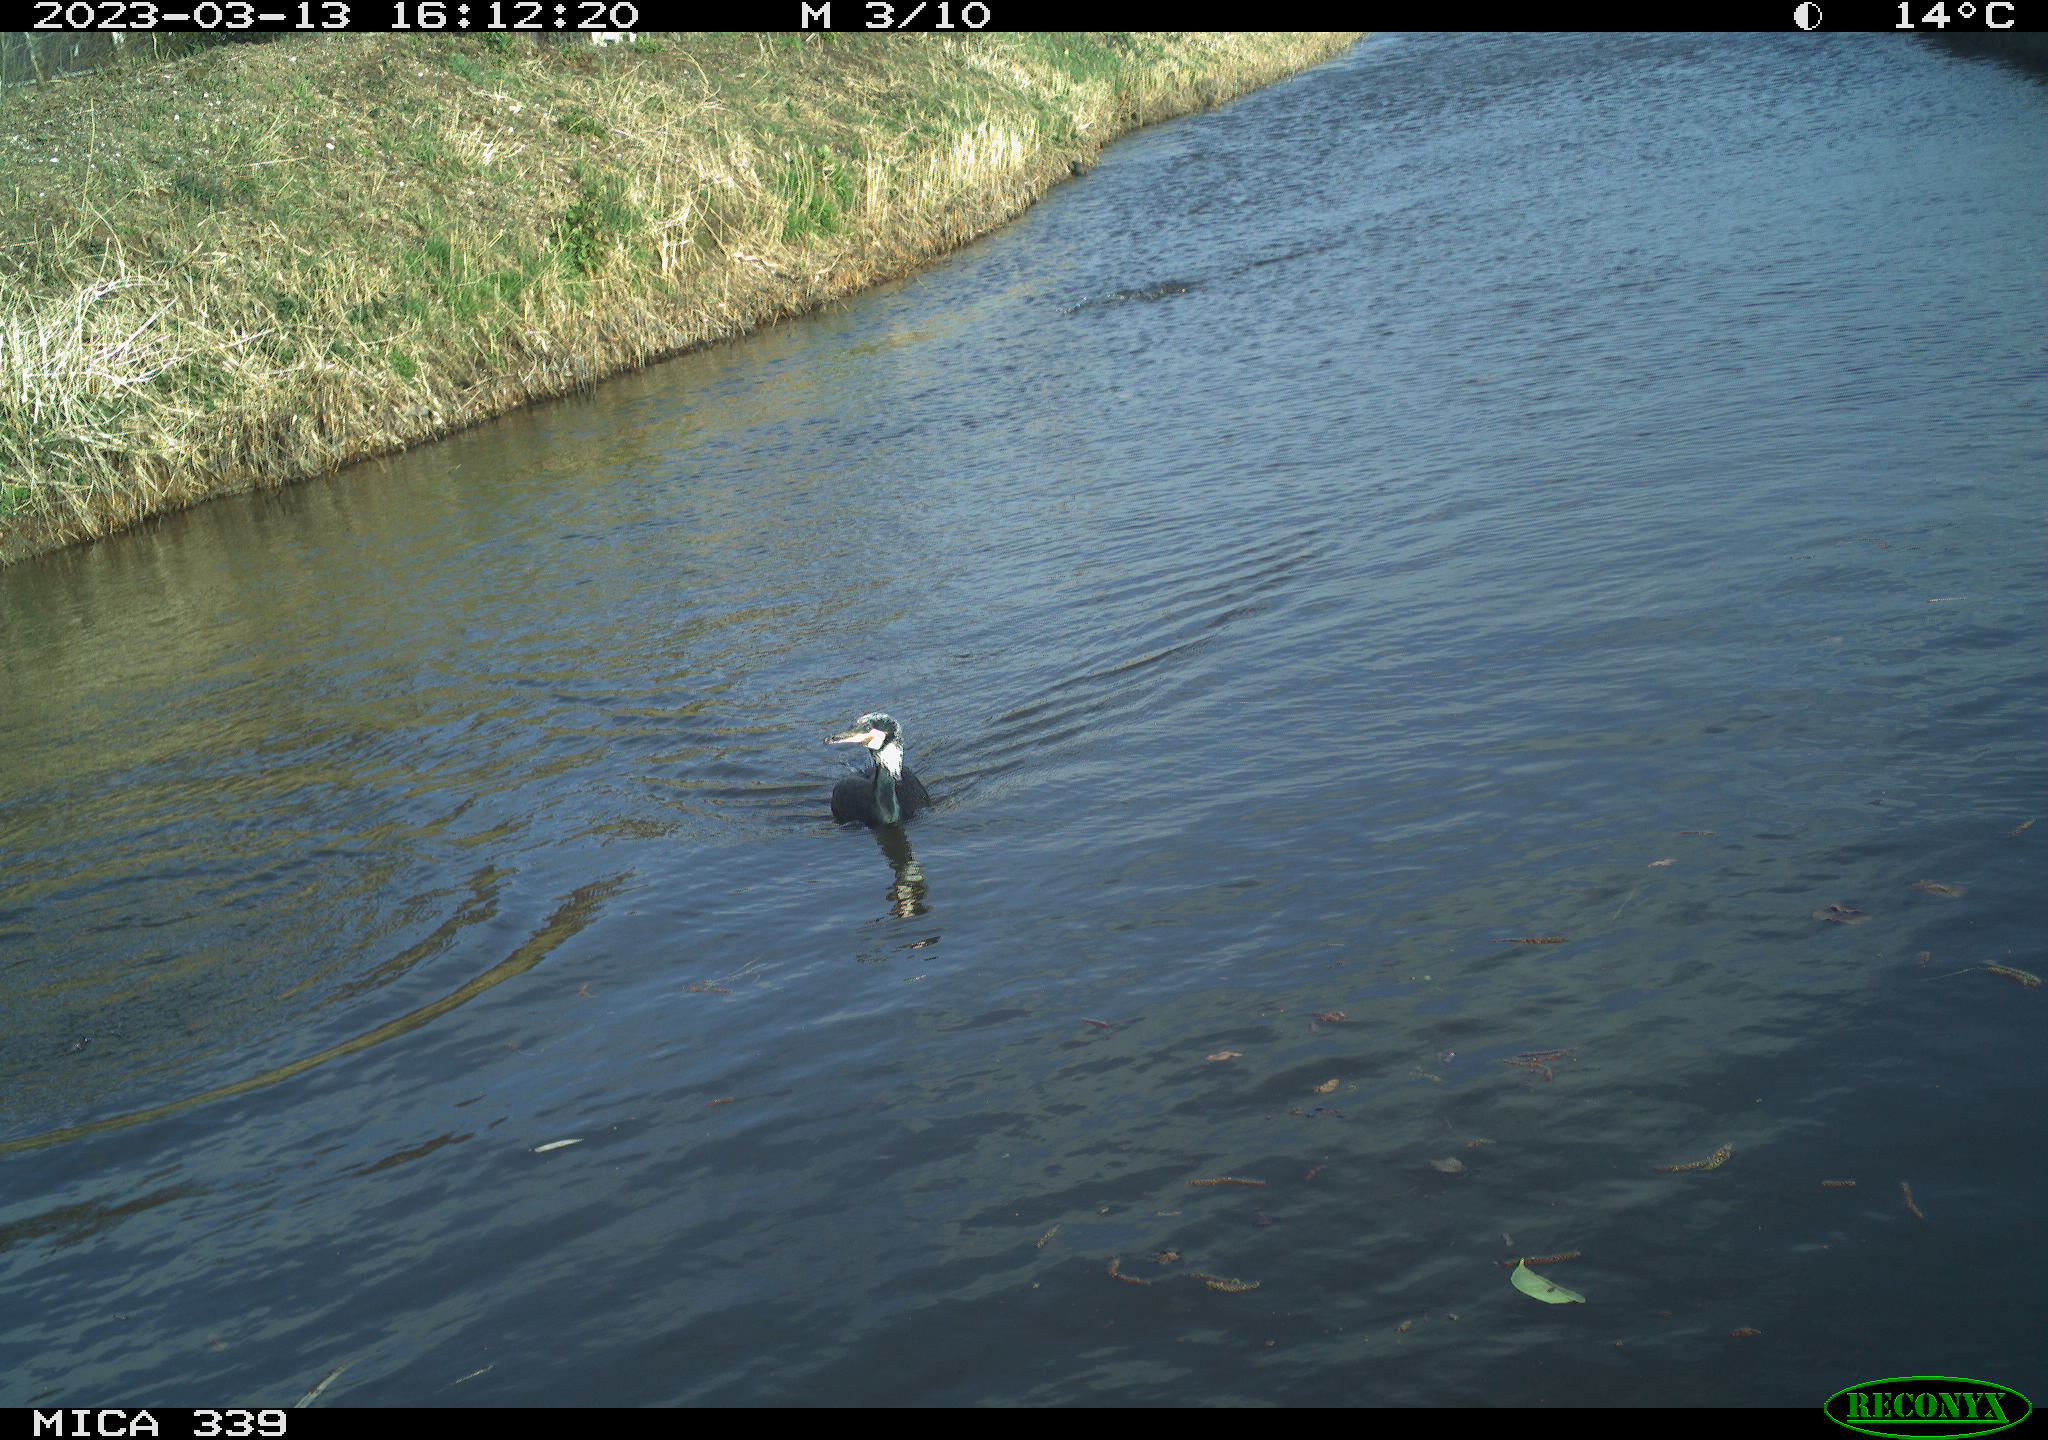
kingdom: Animalia
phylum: Chordata
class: Aves
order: Suliformes
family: Phalacrocoracidae
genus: Phalacrocorax
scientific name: Phalacrocorax carbo
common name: Great cormorant
